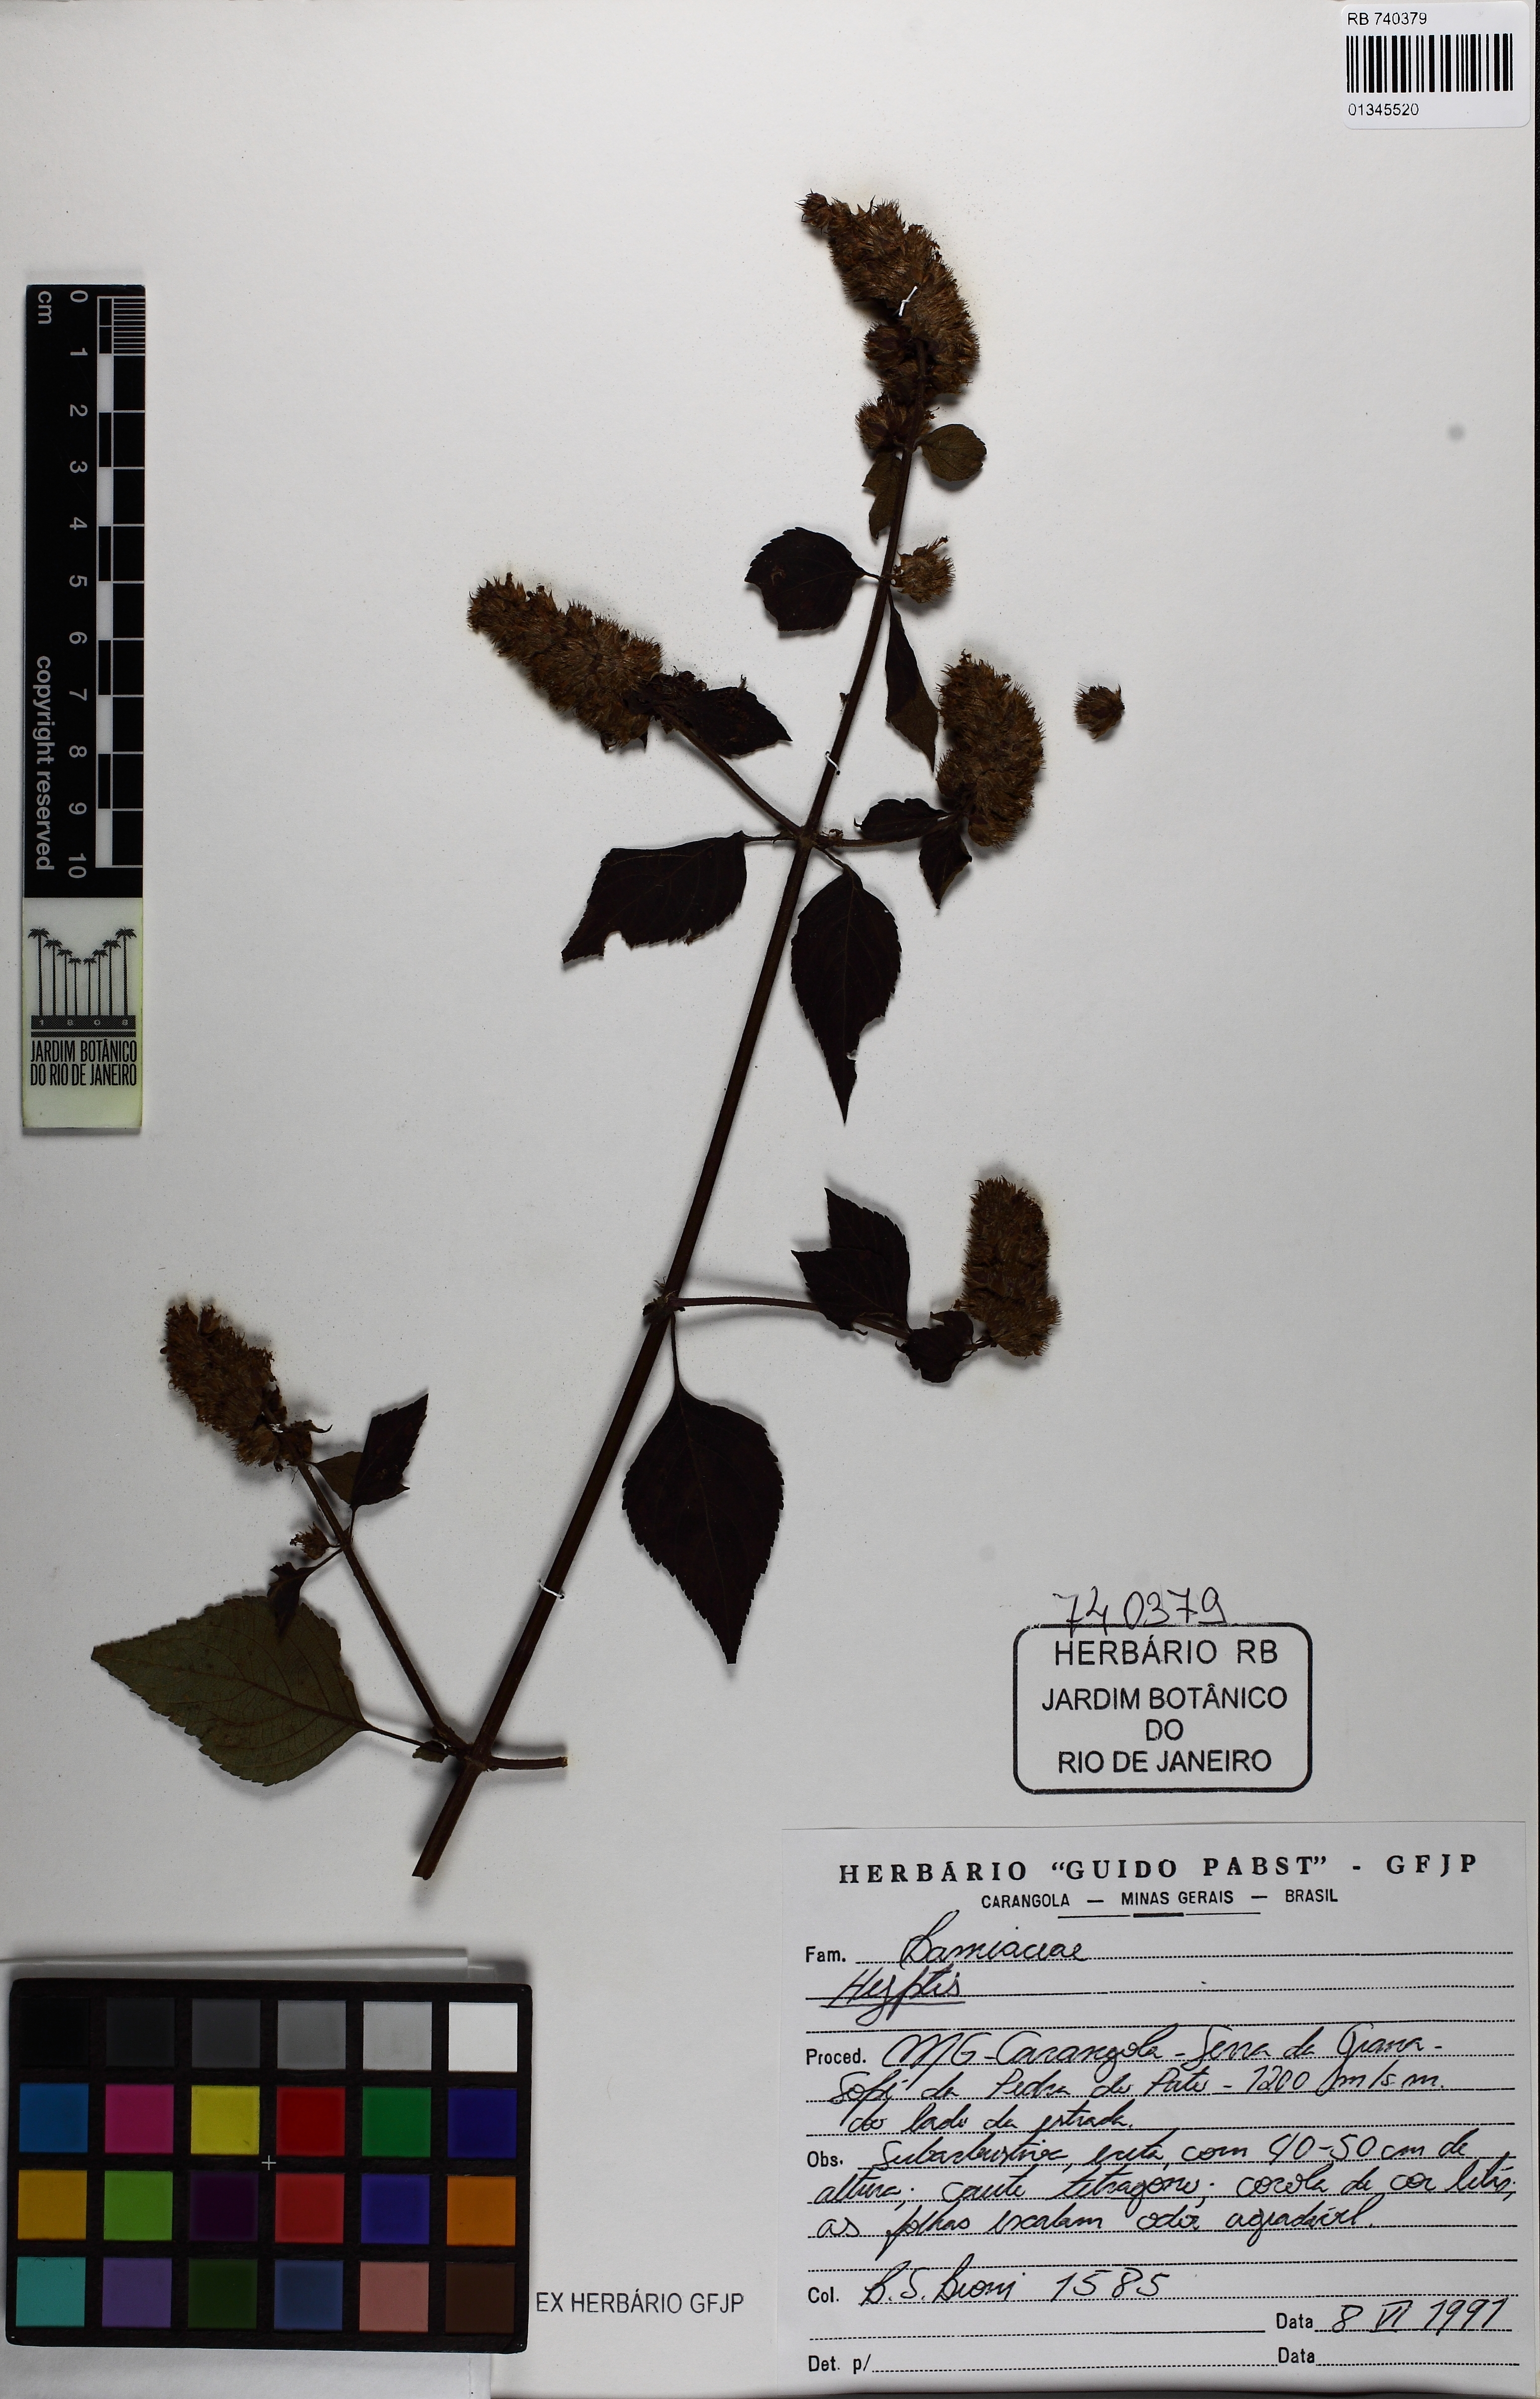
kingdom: Plantae
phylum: Tracheophyta
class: Magnoliopsida
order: Lamiales
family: Lamiaceae
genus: Cantinoa
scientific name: Cantinoa
